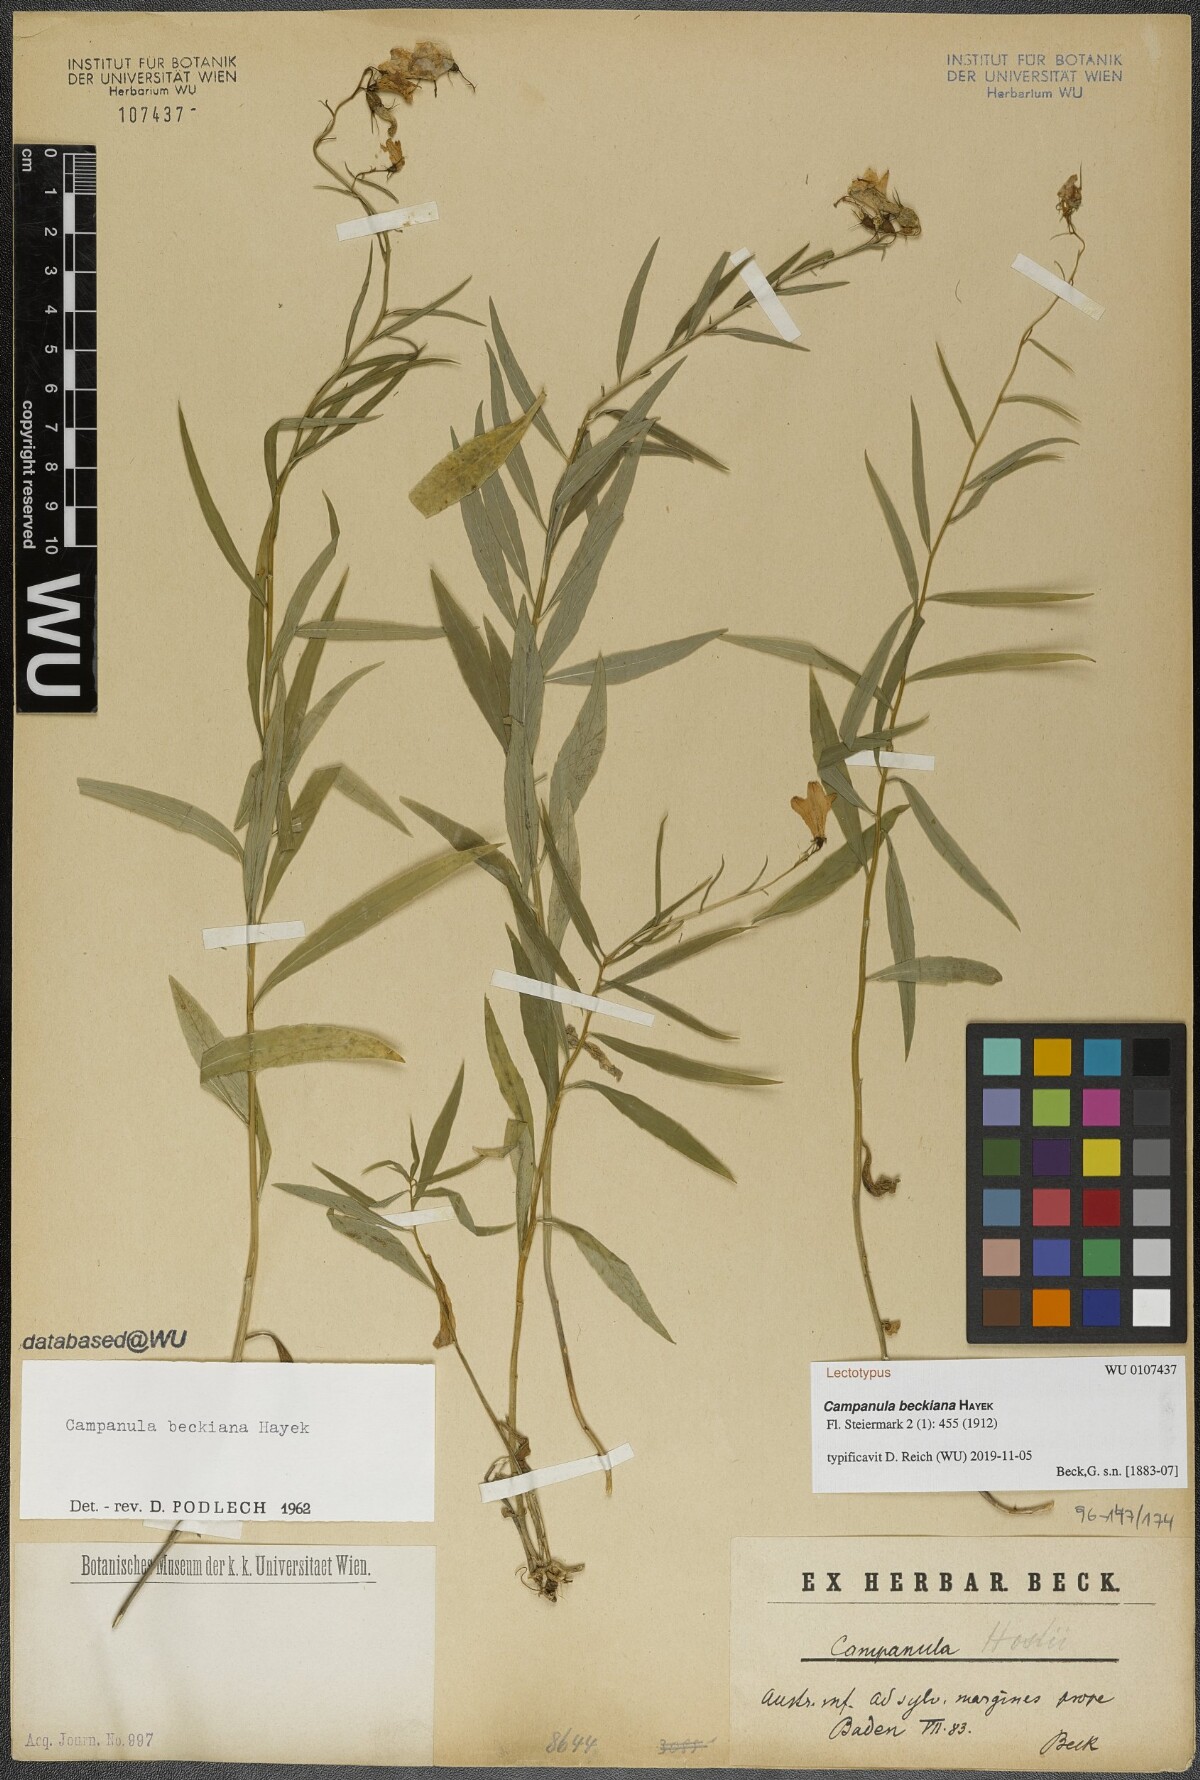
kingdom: Plantae
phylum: Tracheophyta
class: Magnoliopsida
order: Asterales
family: Campanulaceae
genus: Campanula
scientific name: Campanula baumgartenii
